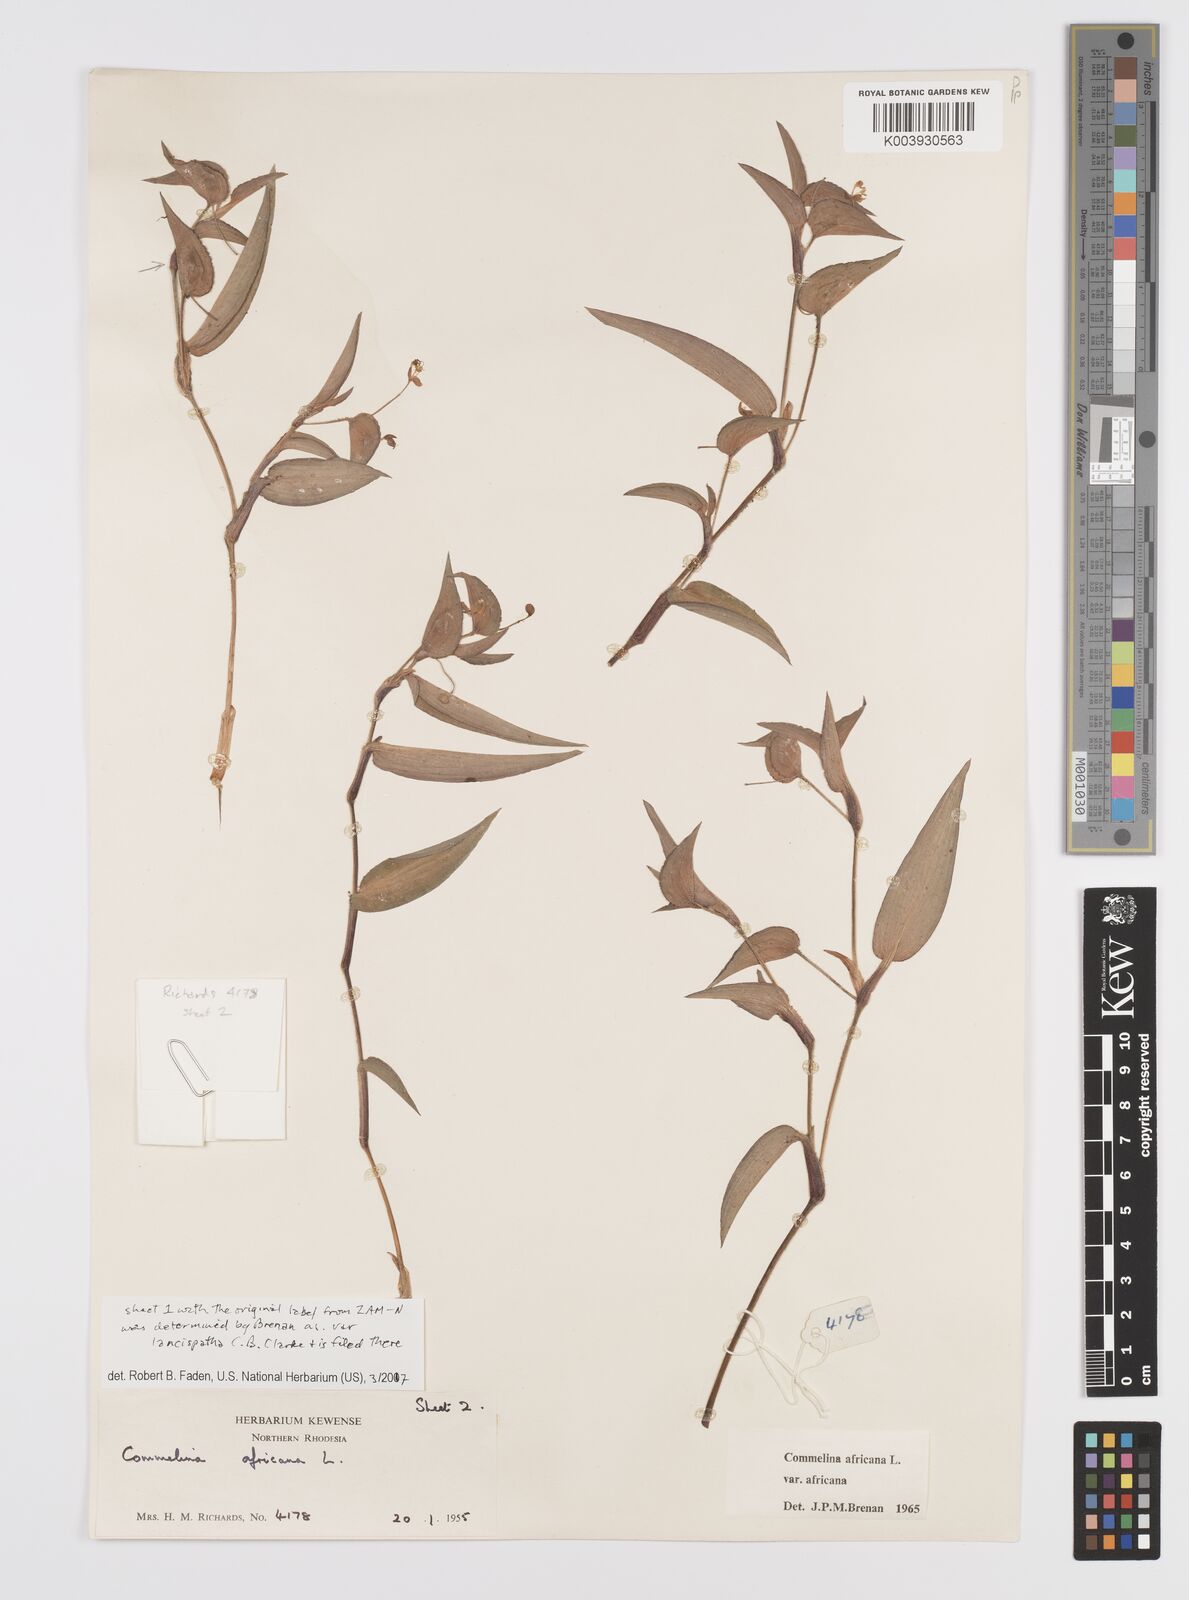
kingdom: Plantae
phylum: Tracheophyta
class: Liliopsida
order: Commelinales
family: Commelinaceae
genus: Commelina
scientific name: Commelina africana
